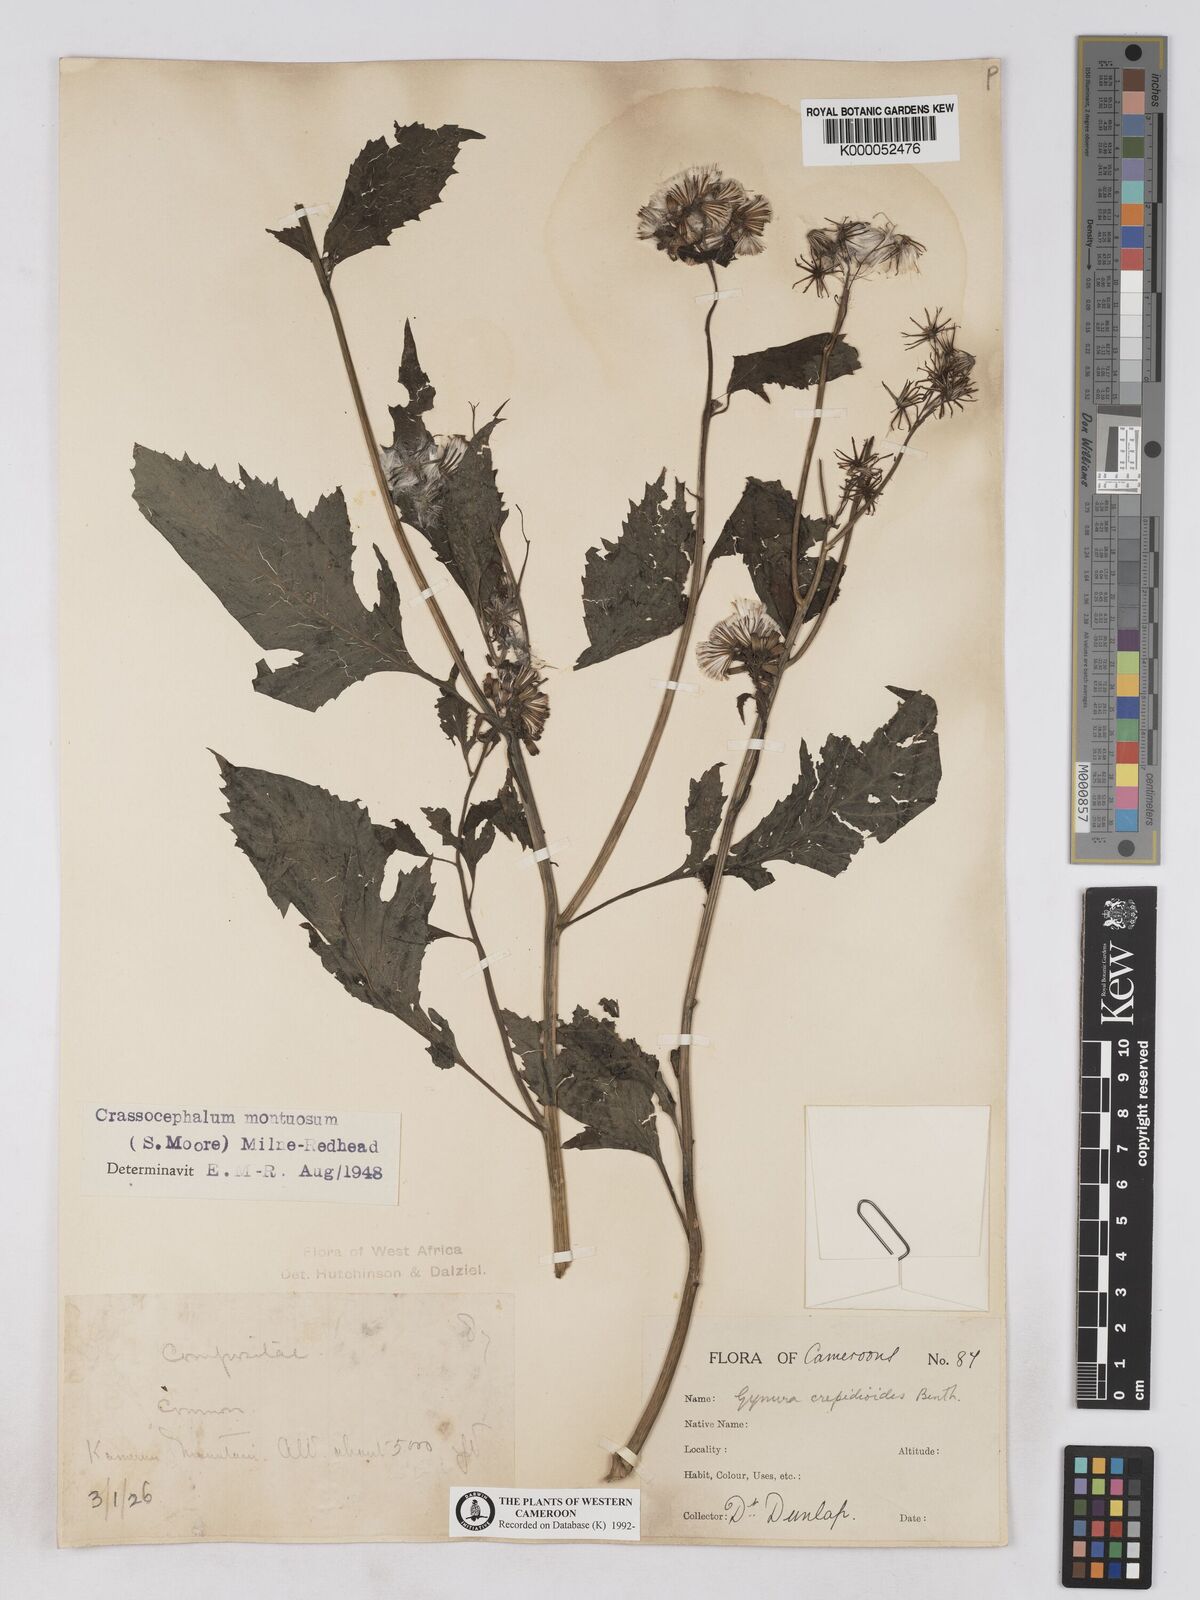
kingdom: Plantae
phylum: Tracheophyta
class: Magnoliopsida
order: Asterales
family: Asteraceae
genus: Crassocephalum
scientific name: Crassocephalum montuosum
